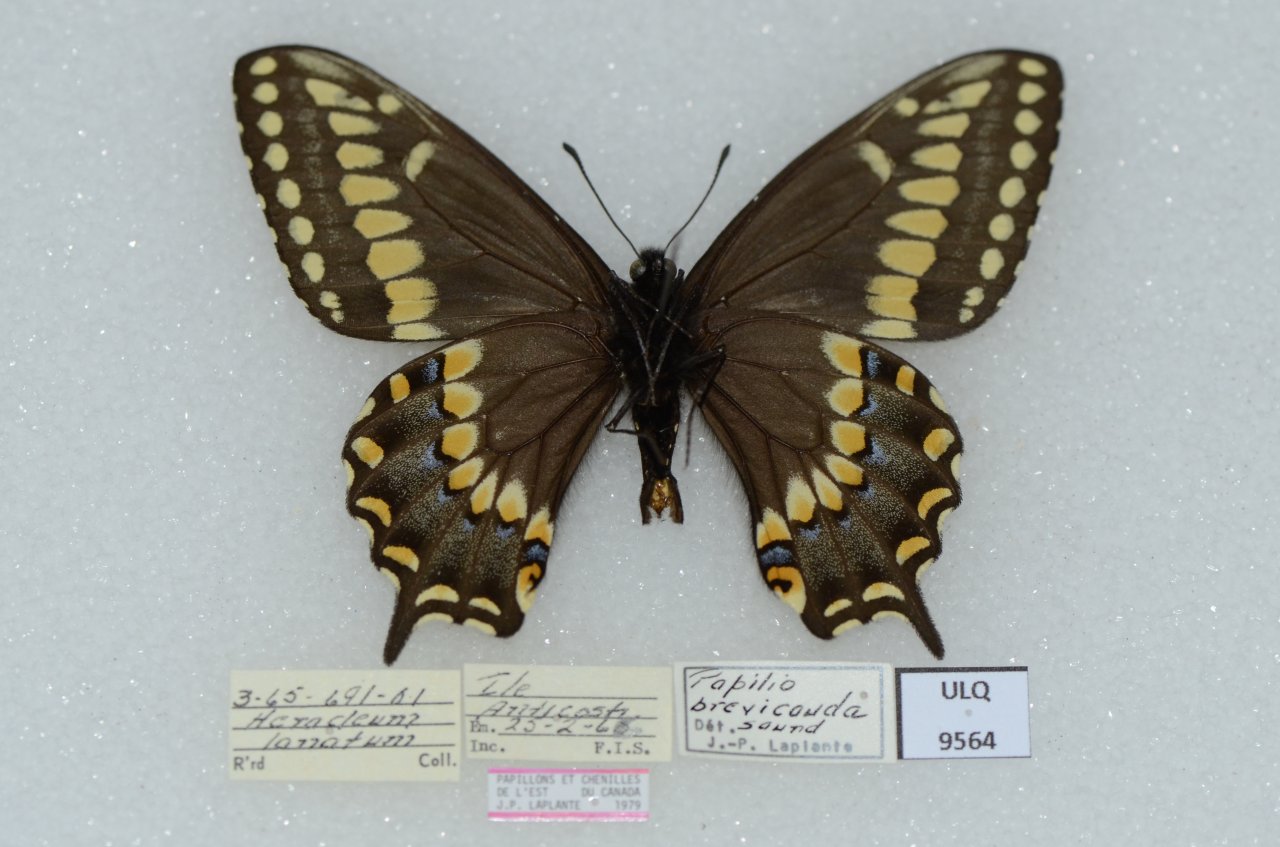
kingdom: Animalia
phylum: Arthropoda
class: Insecta
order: Lepidoptera
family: Papilionidae
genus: Papilio
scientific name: Papilio brevicauda
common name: Short-tailed Swallowtail
